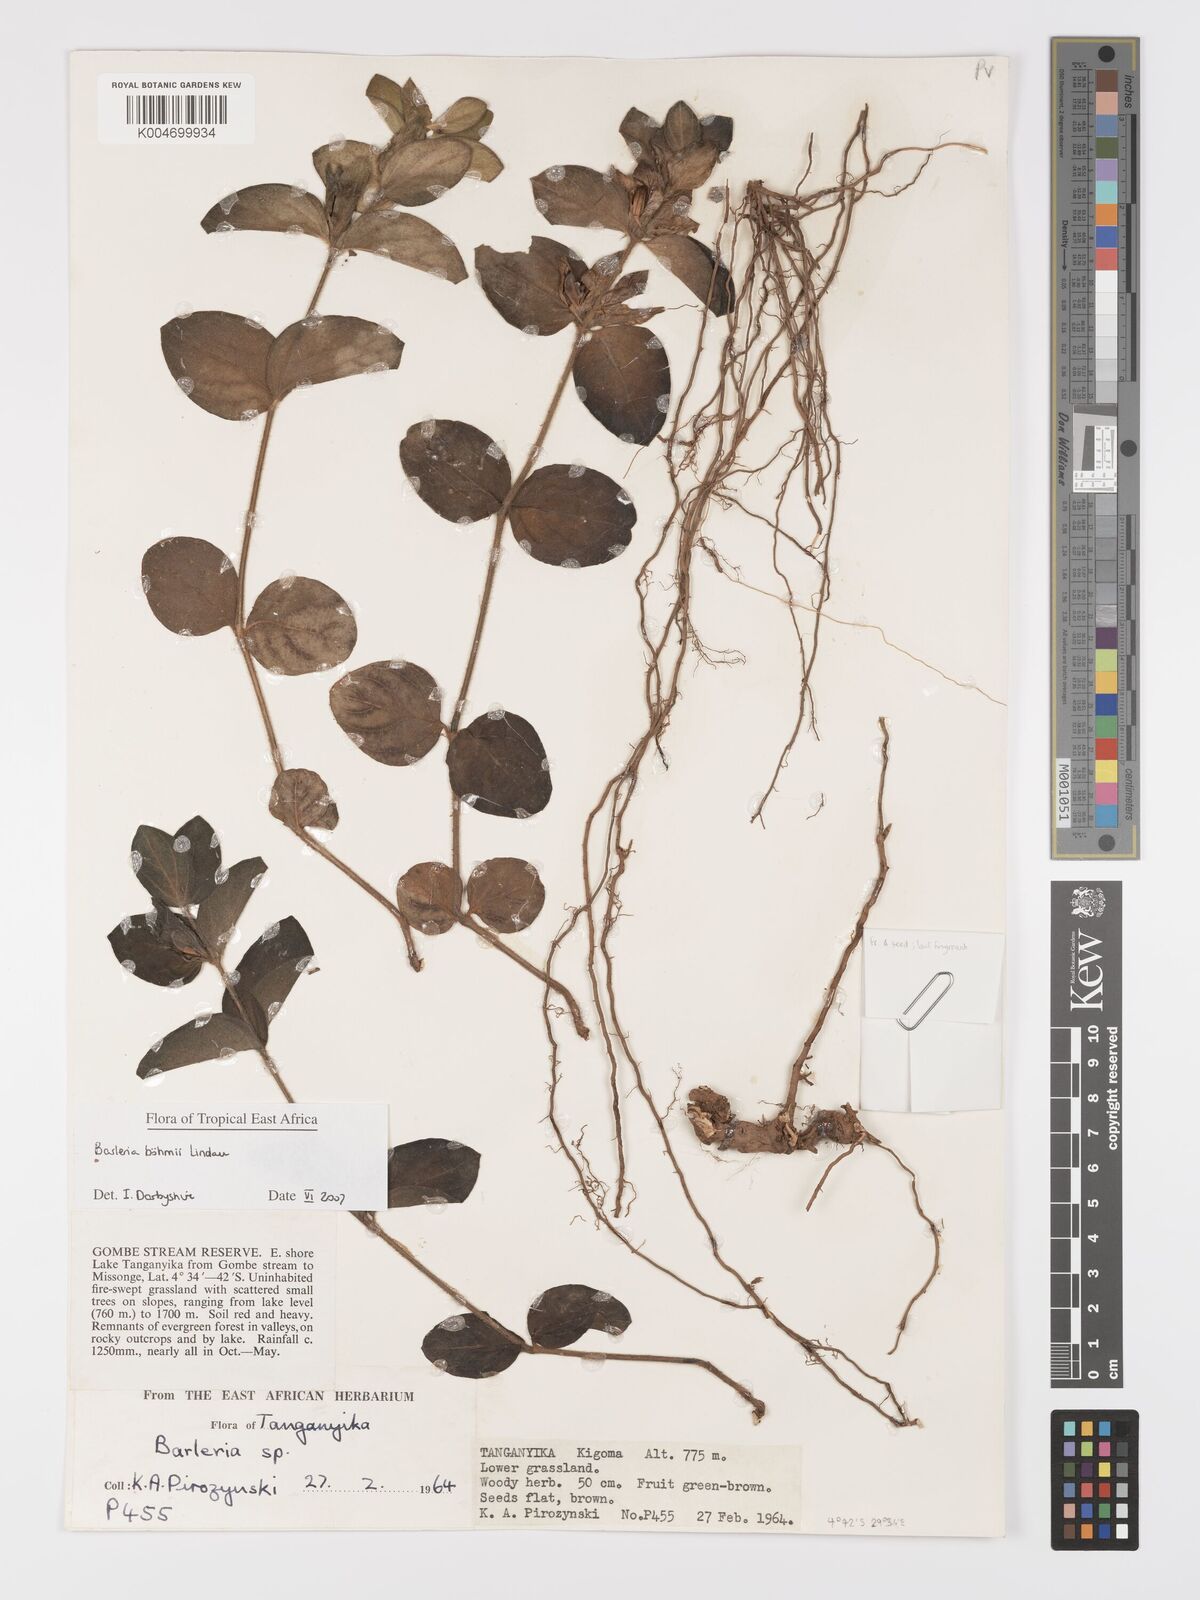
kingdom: Plantae
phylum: Tracheophyta
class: Magnoliopsida
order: Lamiales
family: Acanthaceae
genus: Barleria
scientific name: Barleria boehmii
